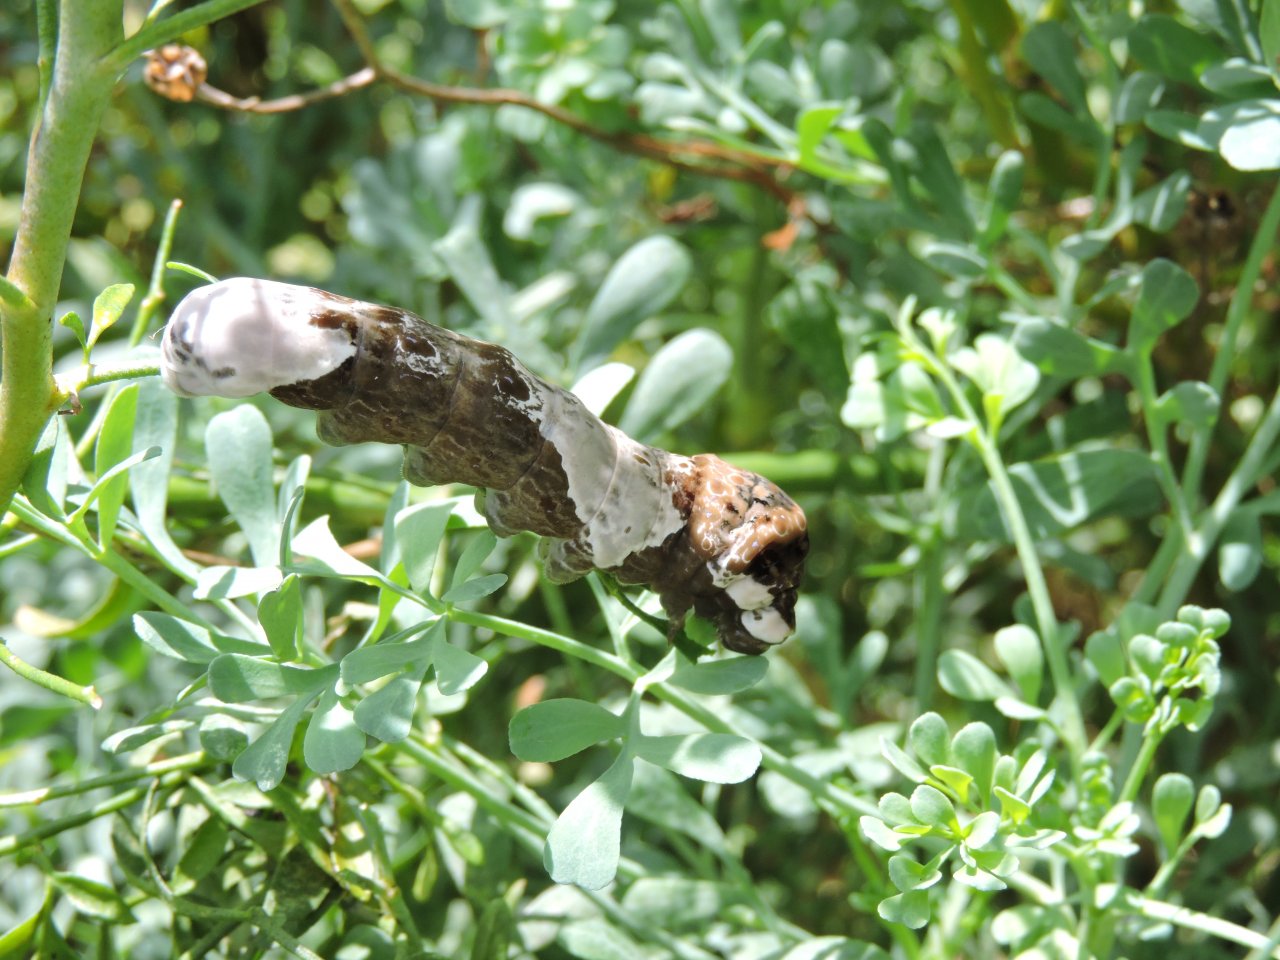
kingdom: Animalia
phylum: Arthropoda
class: Insecta
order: Lepidoptera
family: Papilionidae
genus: Papilio
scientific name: Papilio cresphontes
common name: Eastern Giant Swallowtail
